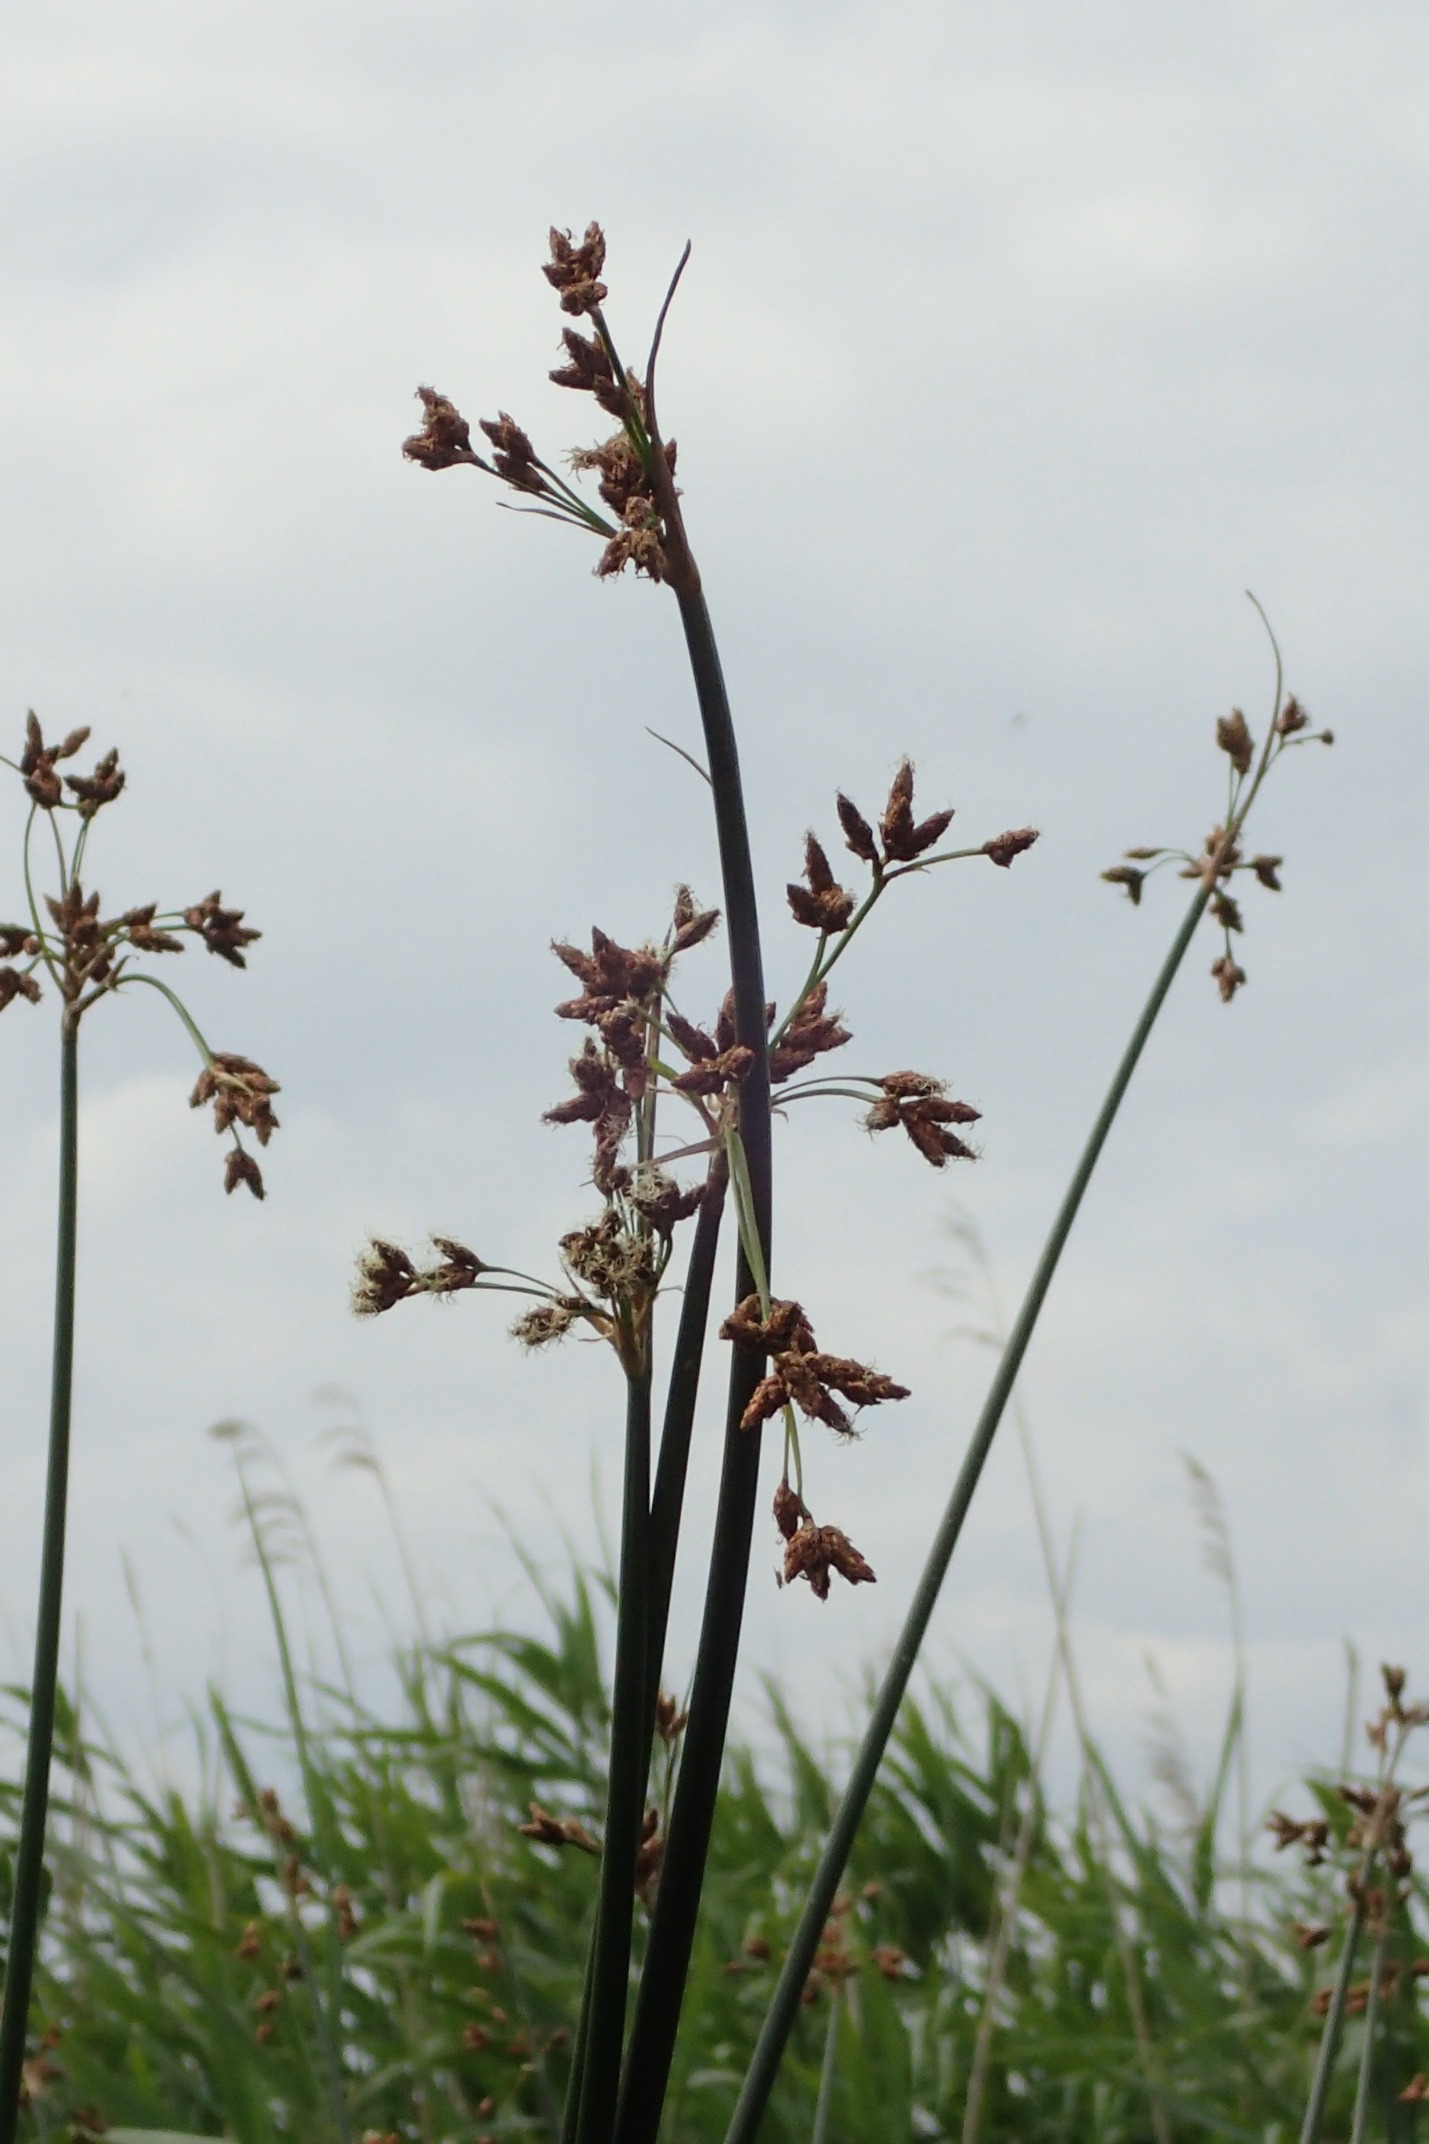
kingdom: Plantae
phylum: Tracheophyta
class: Liliopsida
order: Poales
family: Cyperaceae
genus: Schoenoplectus
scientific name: Schoenoplectus lacustris
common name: Sø-kogleaks
